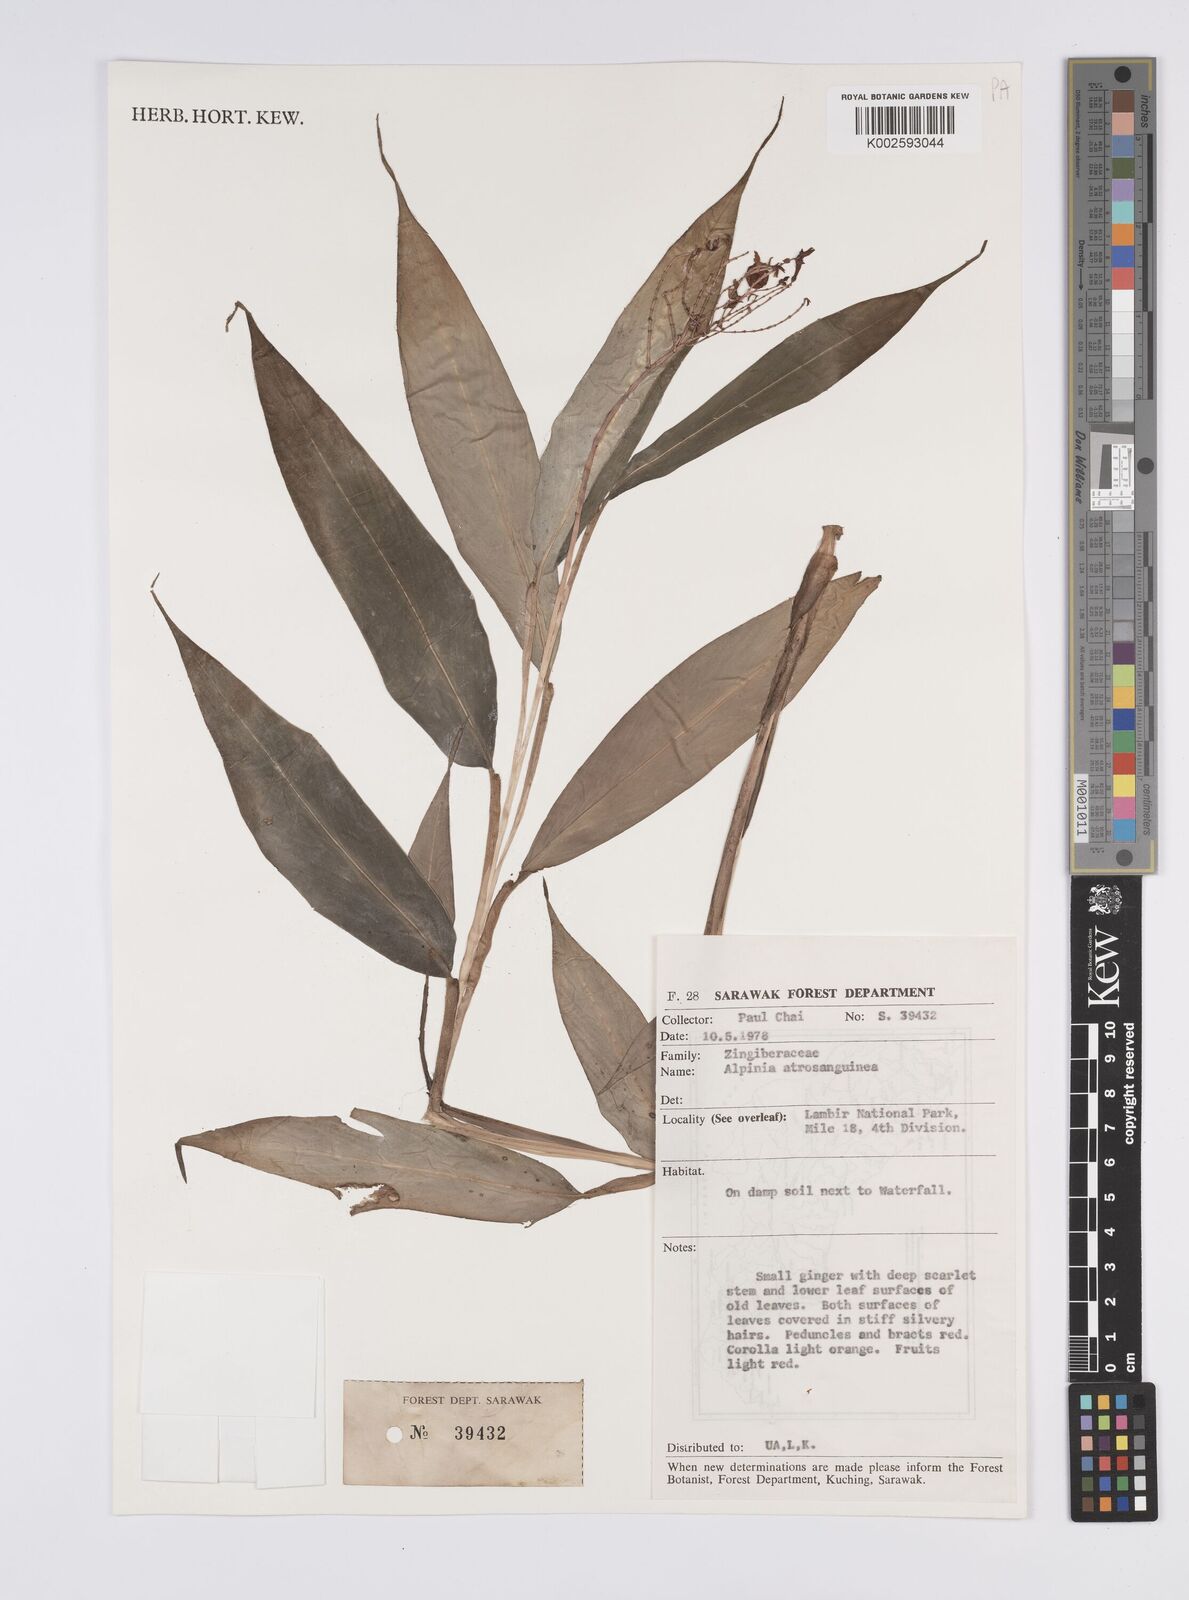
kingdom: Plantae
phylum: Tracheophyta
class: Liliopsida
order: Zingiberales
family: Zingiberaceae
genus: Globba
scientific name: Globba brachyanthera
